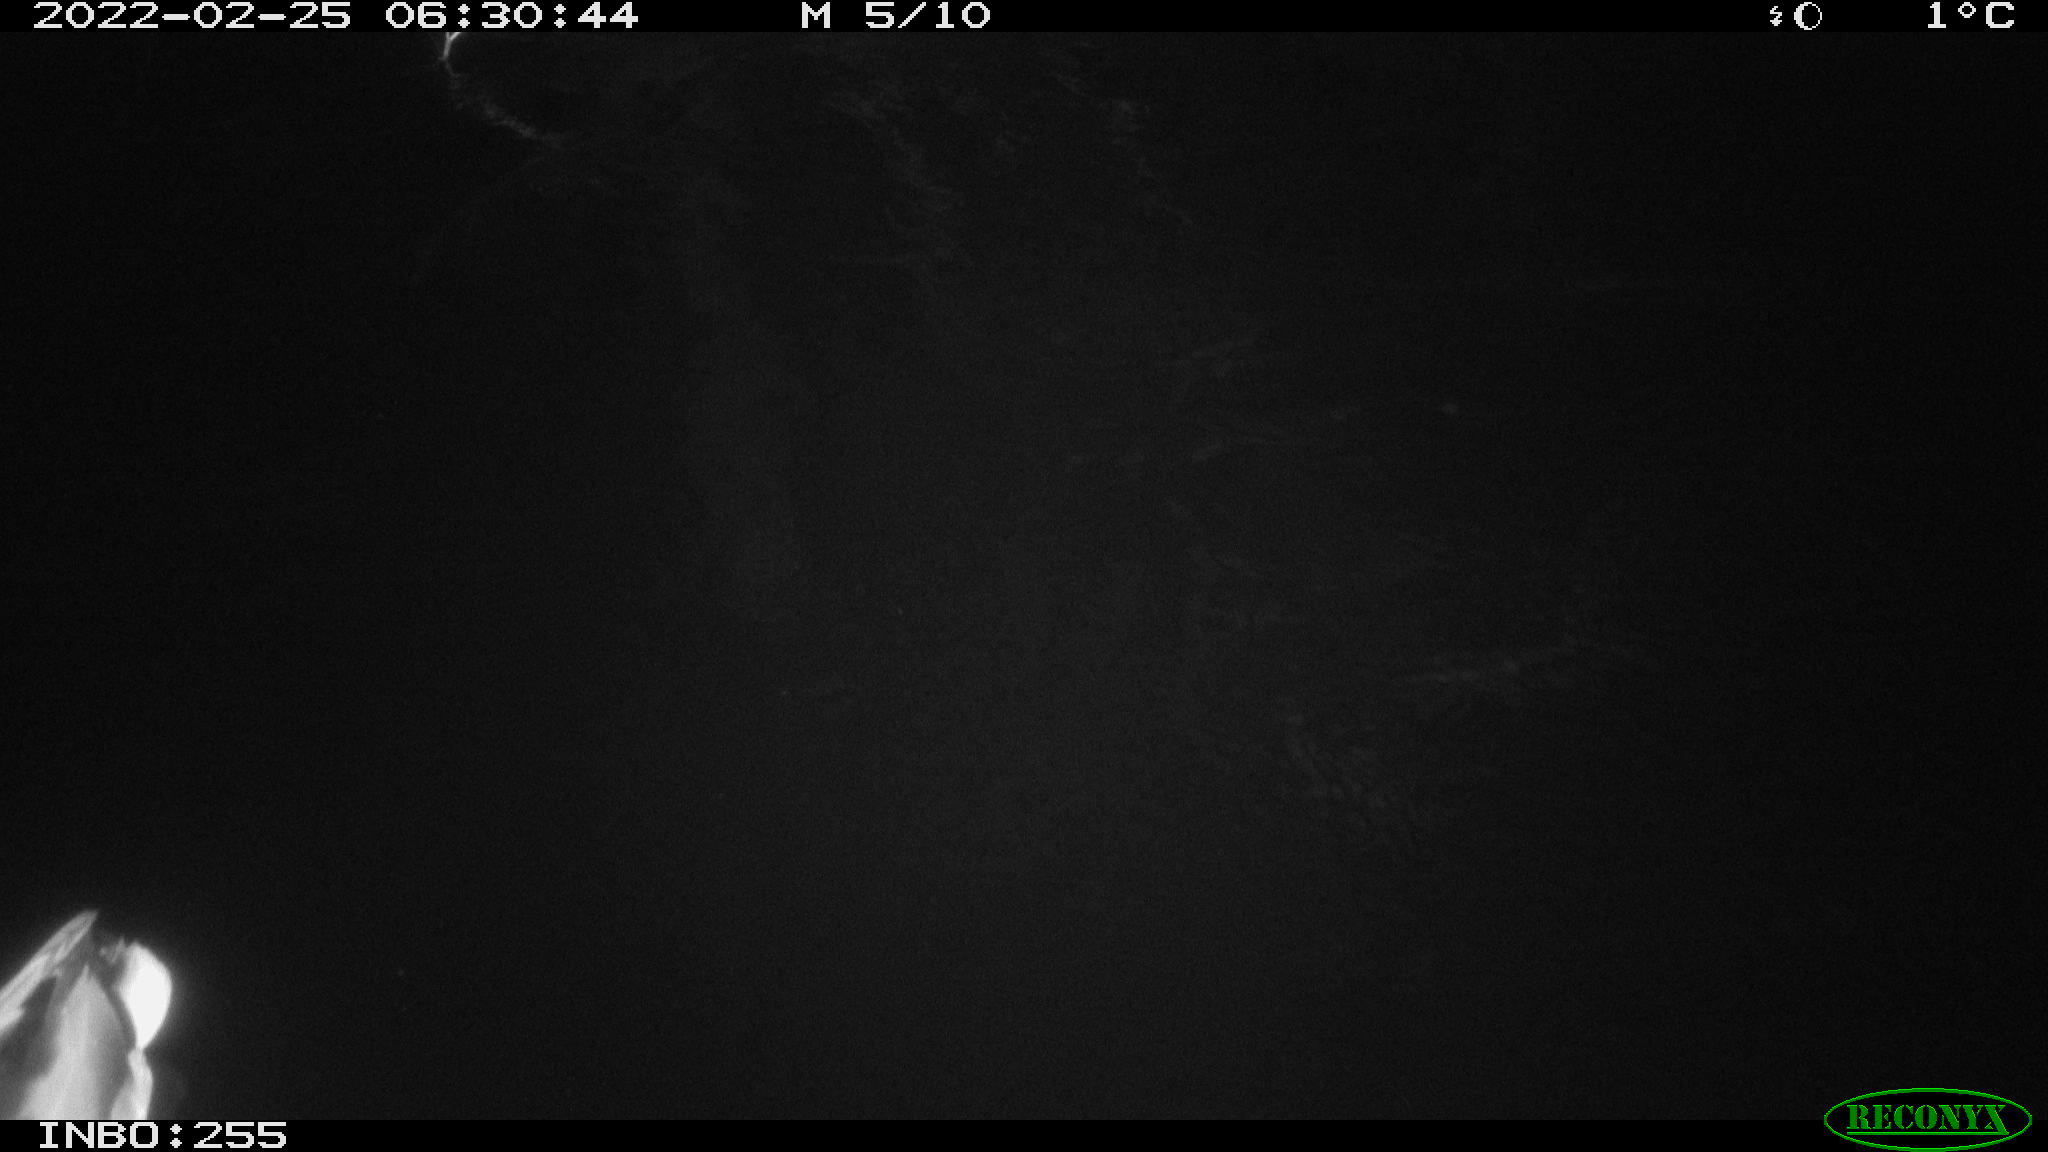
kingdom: Animalia
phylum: Chordata
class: Aves
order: Anseriformes
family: Anatidae
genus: Anas
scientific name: Anas platyrhynchos
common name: Mallard
